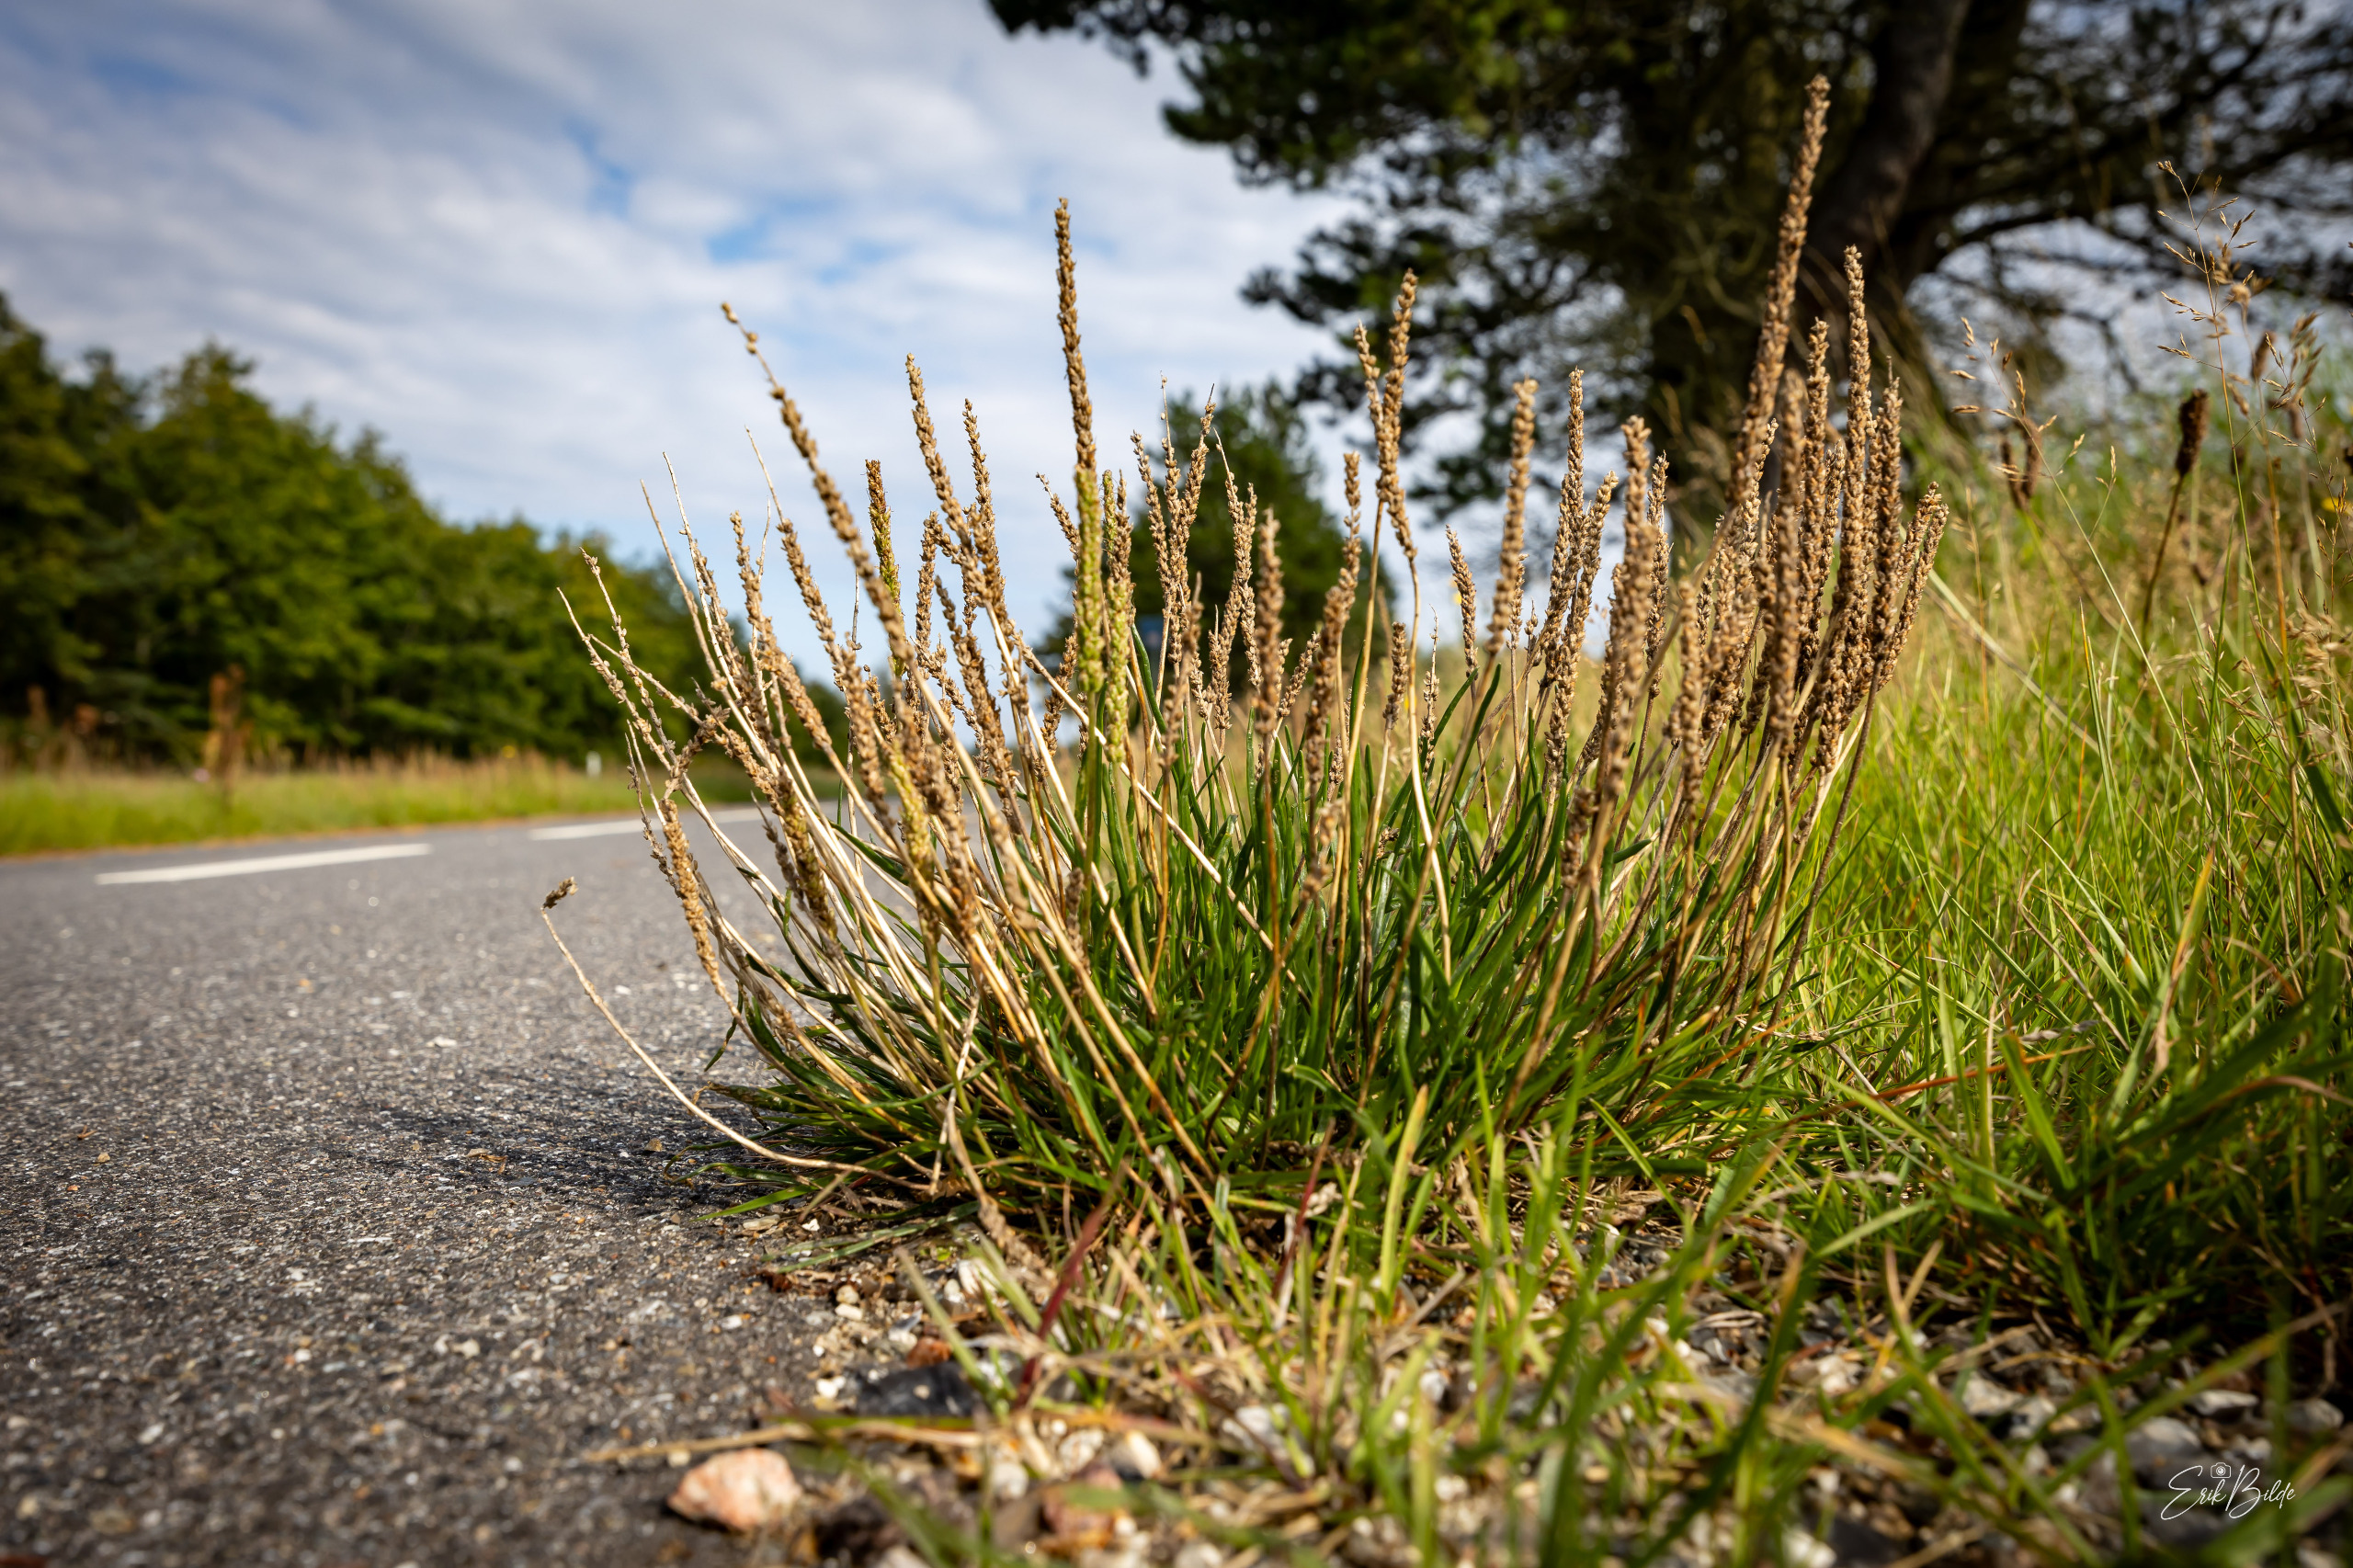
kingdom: Plantae
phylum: Tracheophyta
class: Magnoliopsida
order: Lamiales
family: Plantaginaceae
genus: Plantago
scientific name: Plantago maritima
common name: Strand-vejbred
